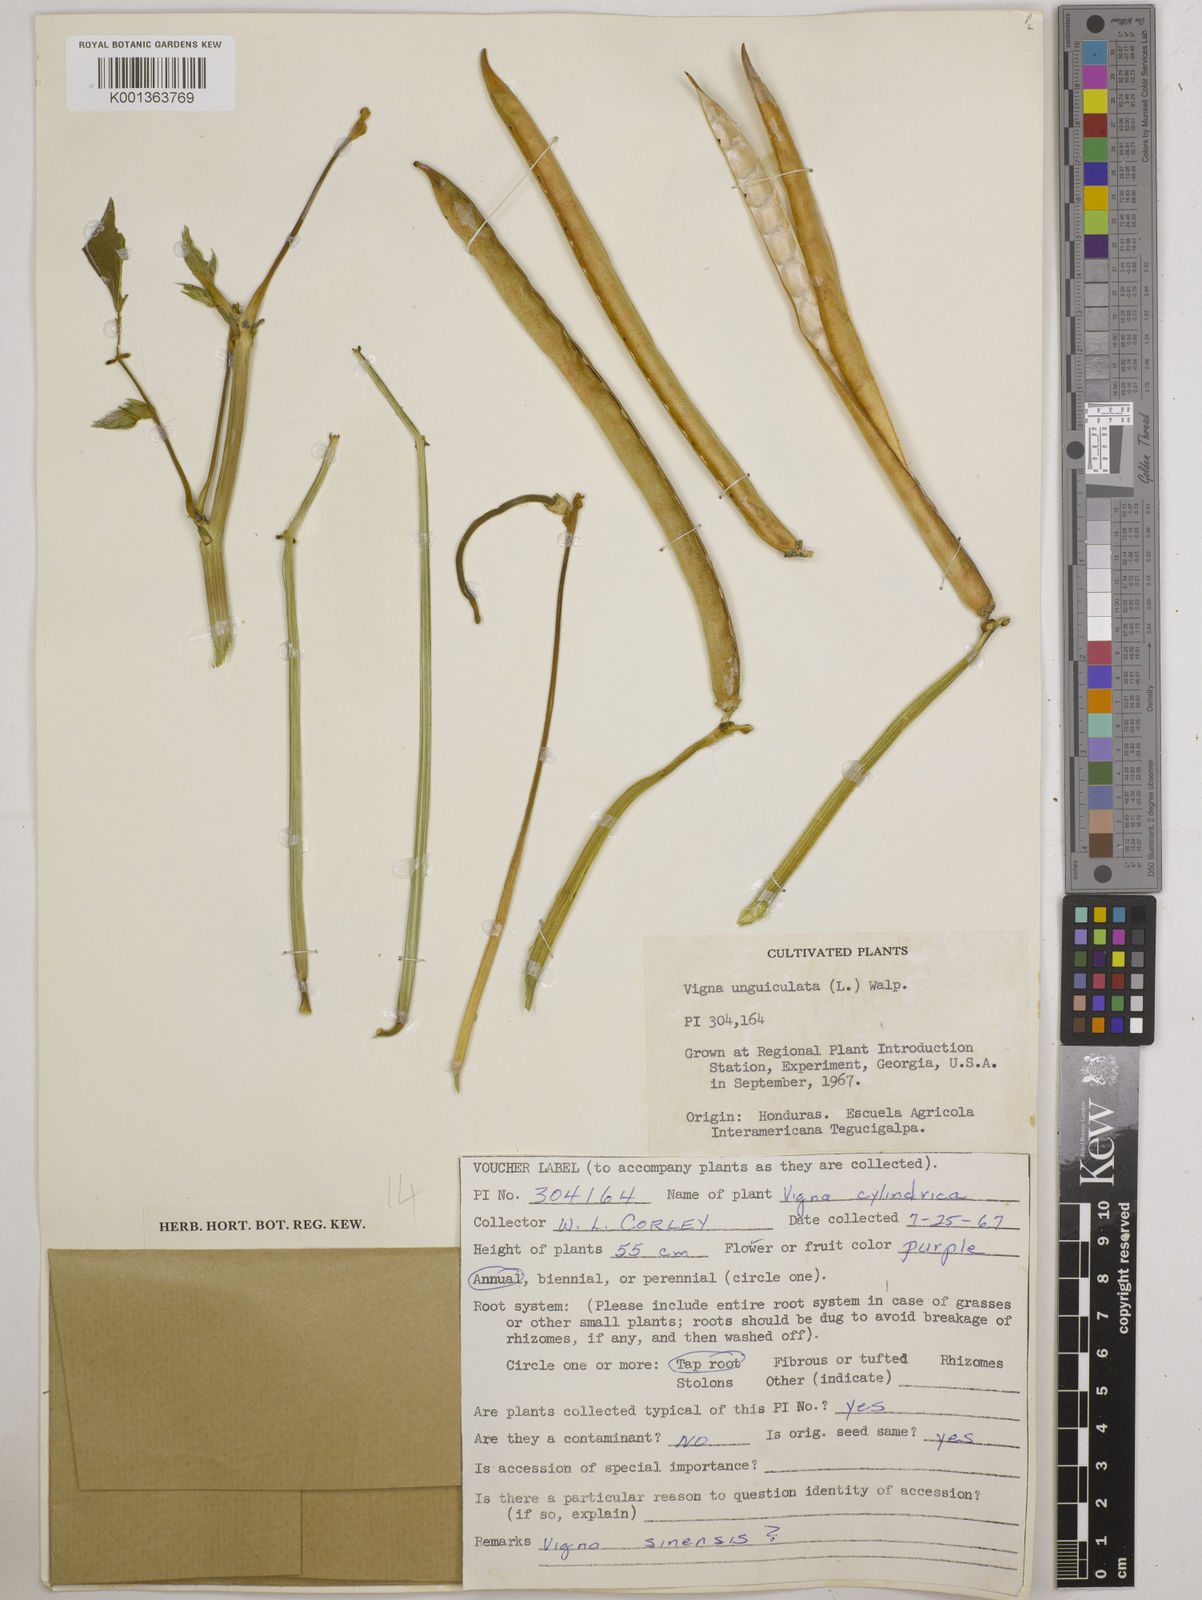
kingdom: Plantae
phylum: Tracheophyta
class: Magnoliopsida
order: Fabales
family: Fabaceae
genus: Vigna
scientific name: Vigna unguiculata
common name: Cowpea
